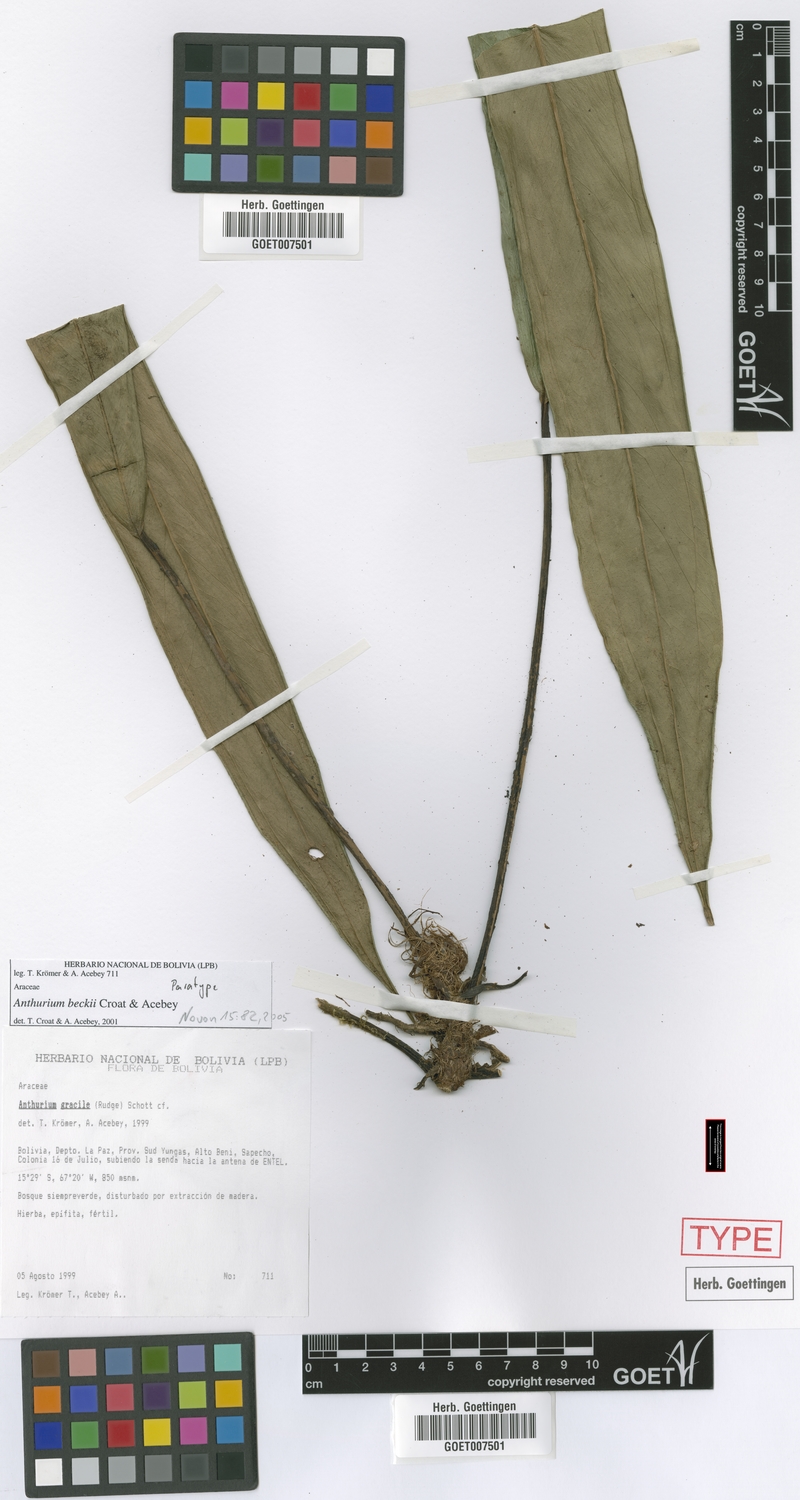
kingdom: Plantae
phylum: Tracheophyta
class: Liliopsida
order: Alismatales
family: Araceae
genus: Anthurium
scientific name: Anthurium beckii
